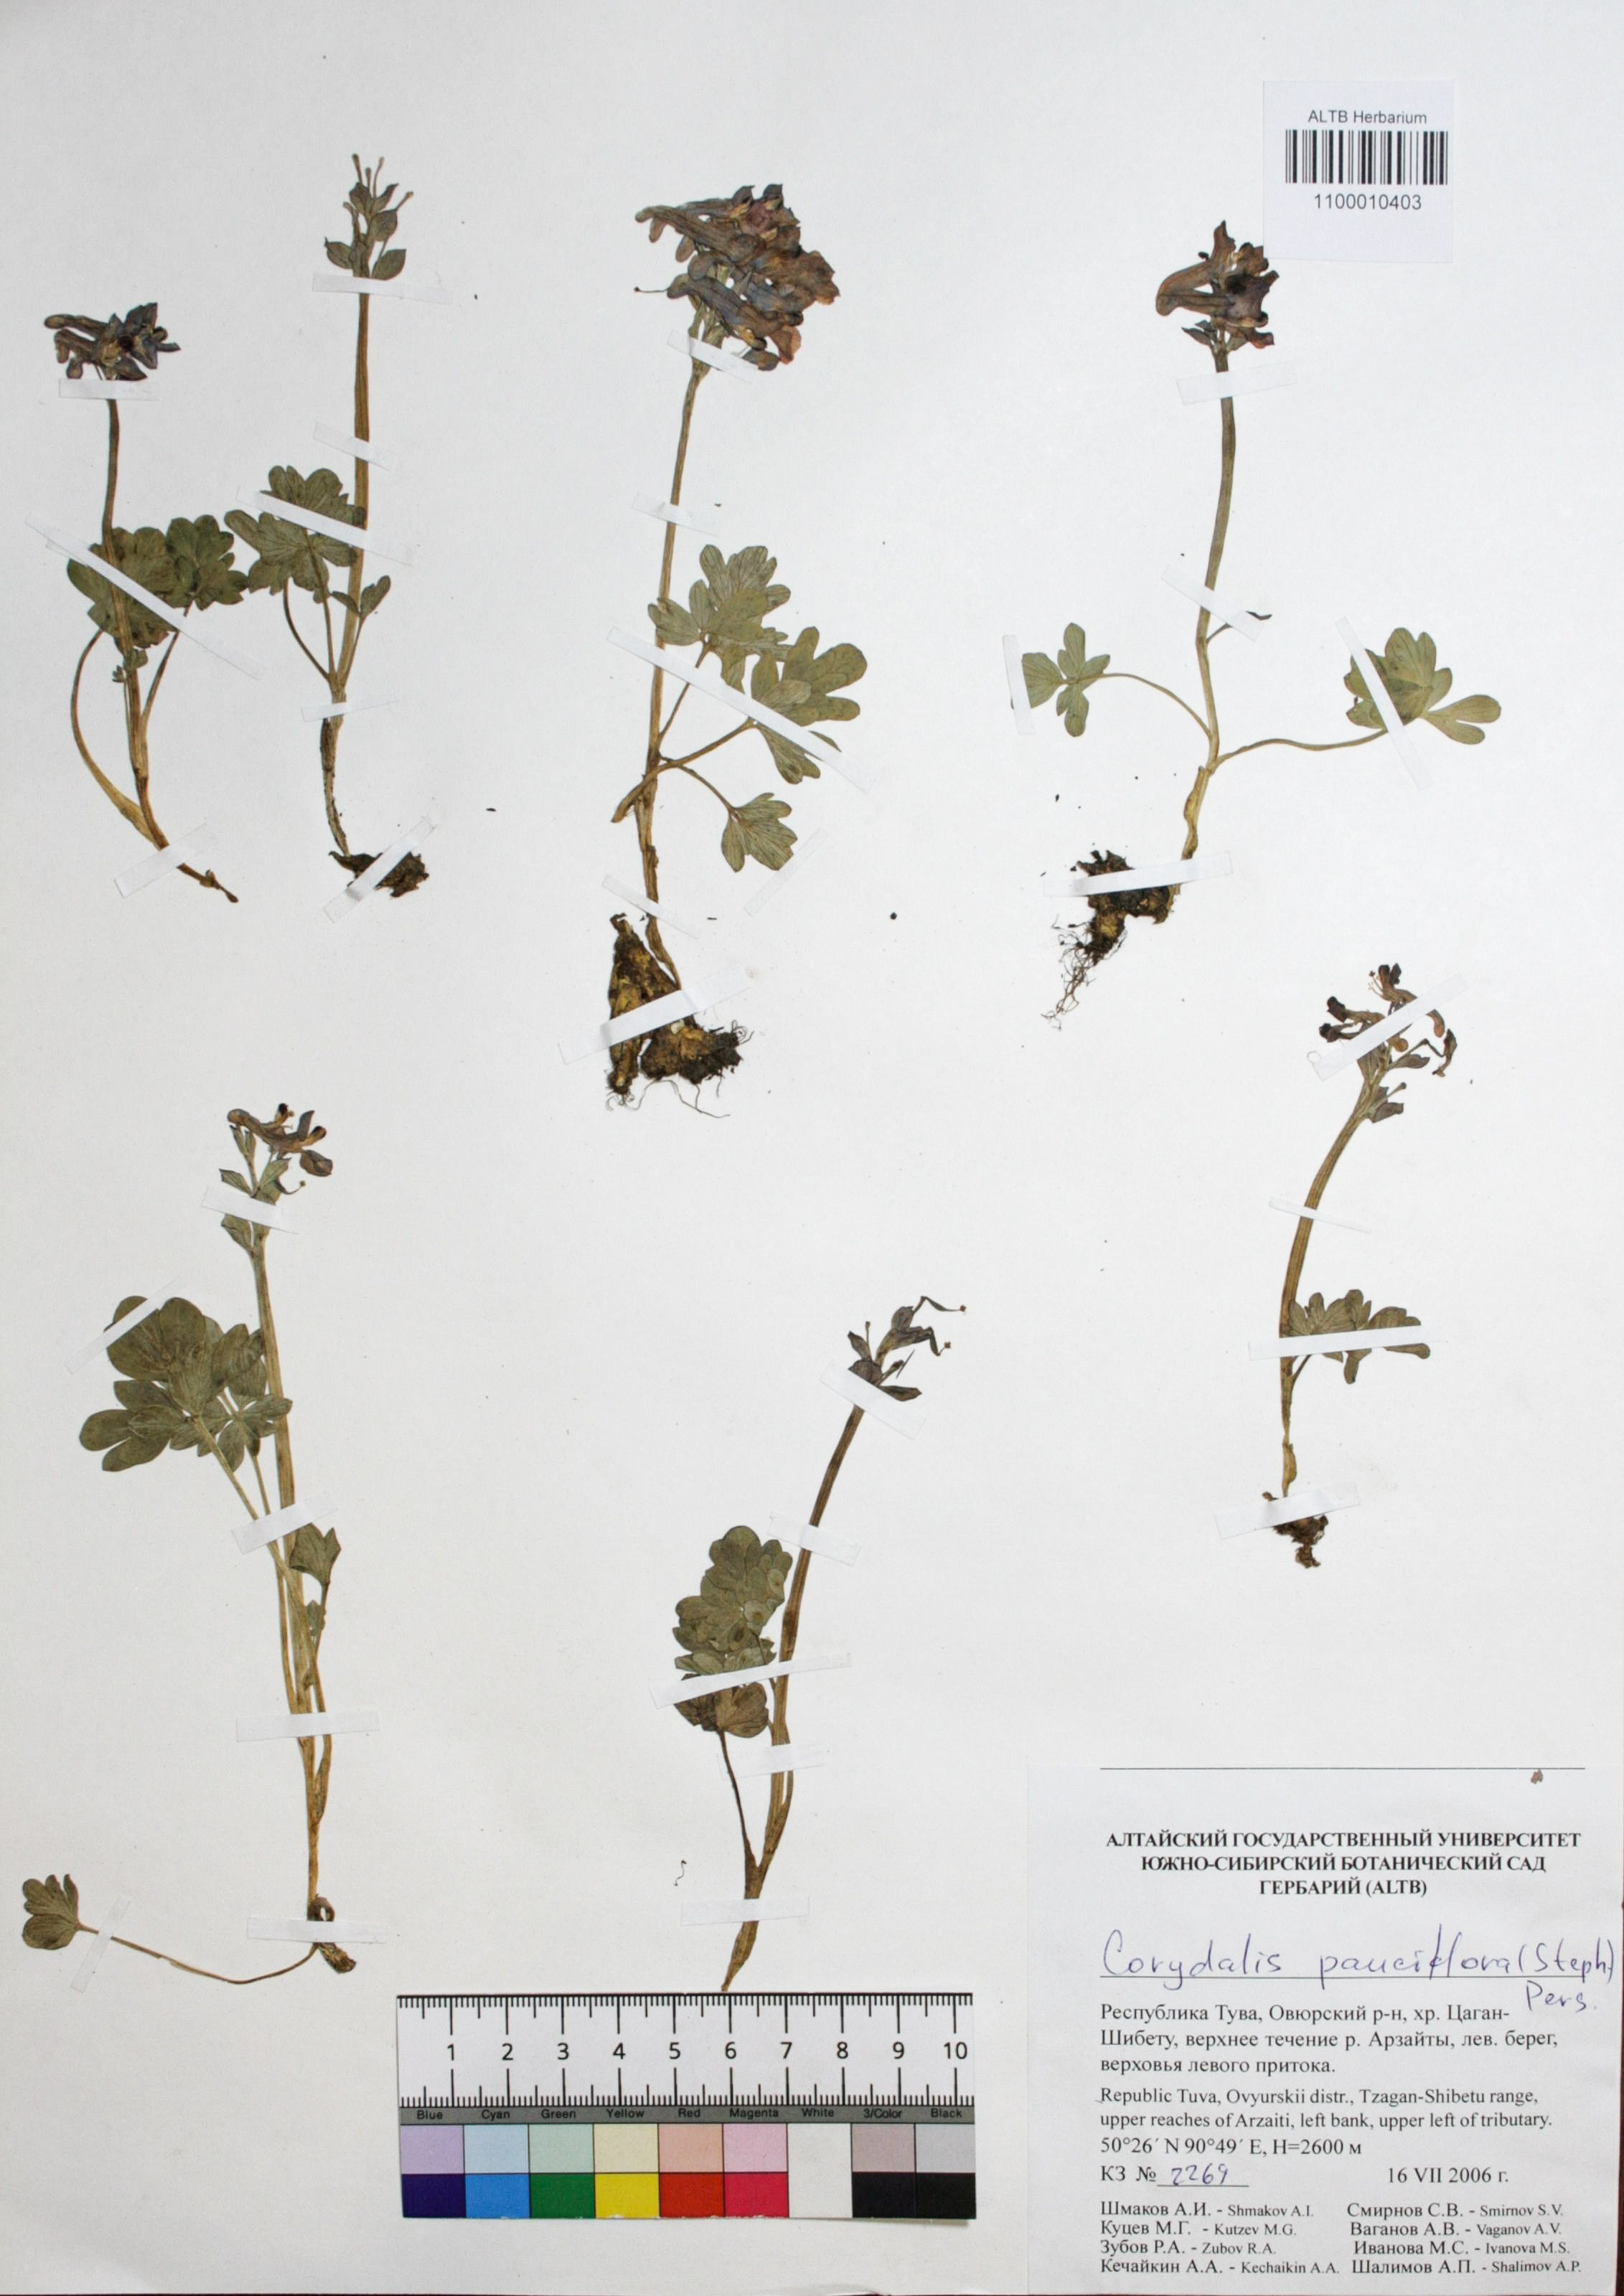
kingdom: Plantae
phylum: Tracheophyta
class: Magnoliopsida
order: Ranunculales
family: Papaveraceae
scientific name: Papaveraceae
